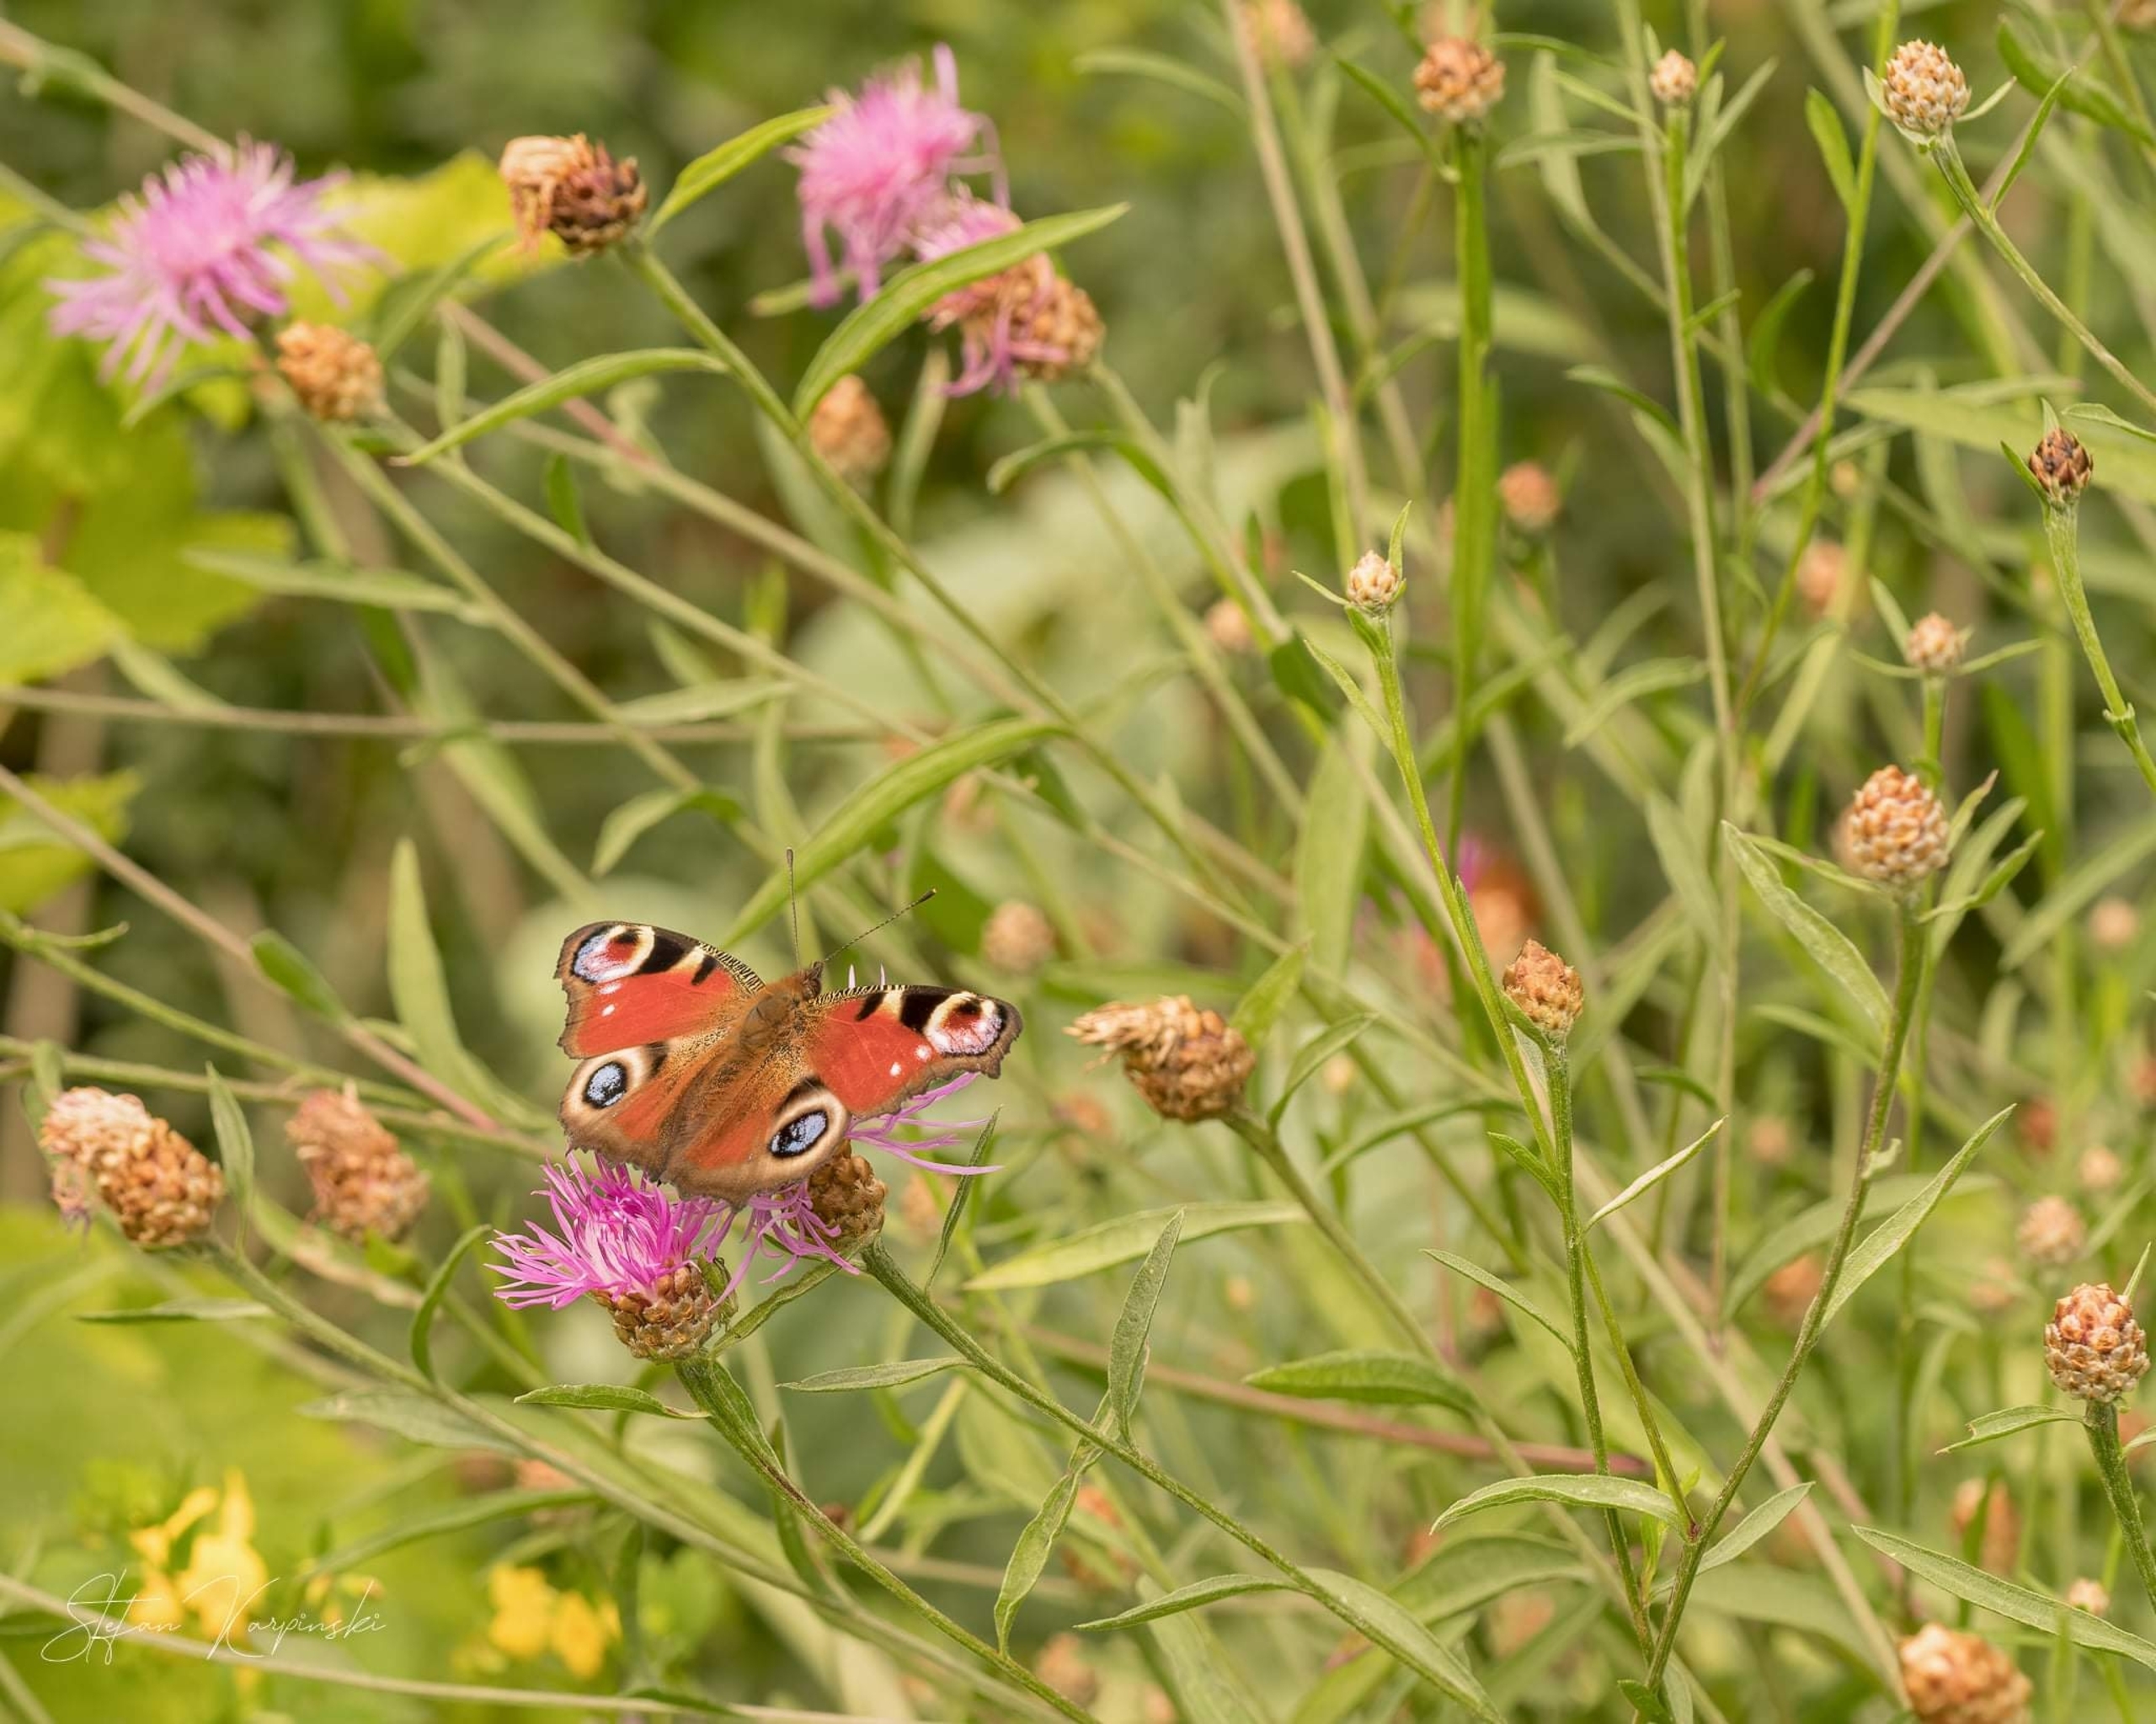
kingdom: Animalia
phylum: Arthropoda
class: Insecta
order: Lepidoptera
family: Nymphalidae
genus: Aglais
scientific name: Aglais io
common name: Dagpåfugleøje
